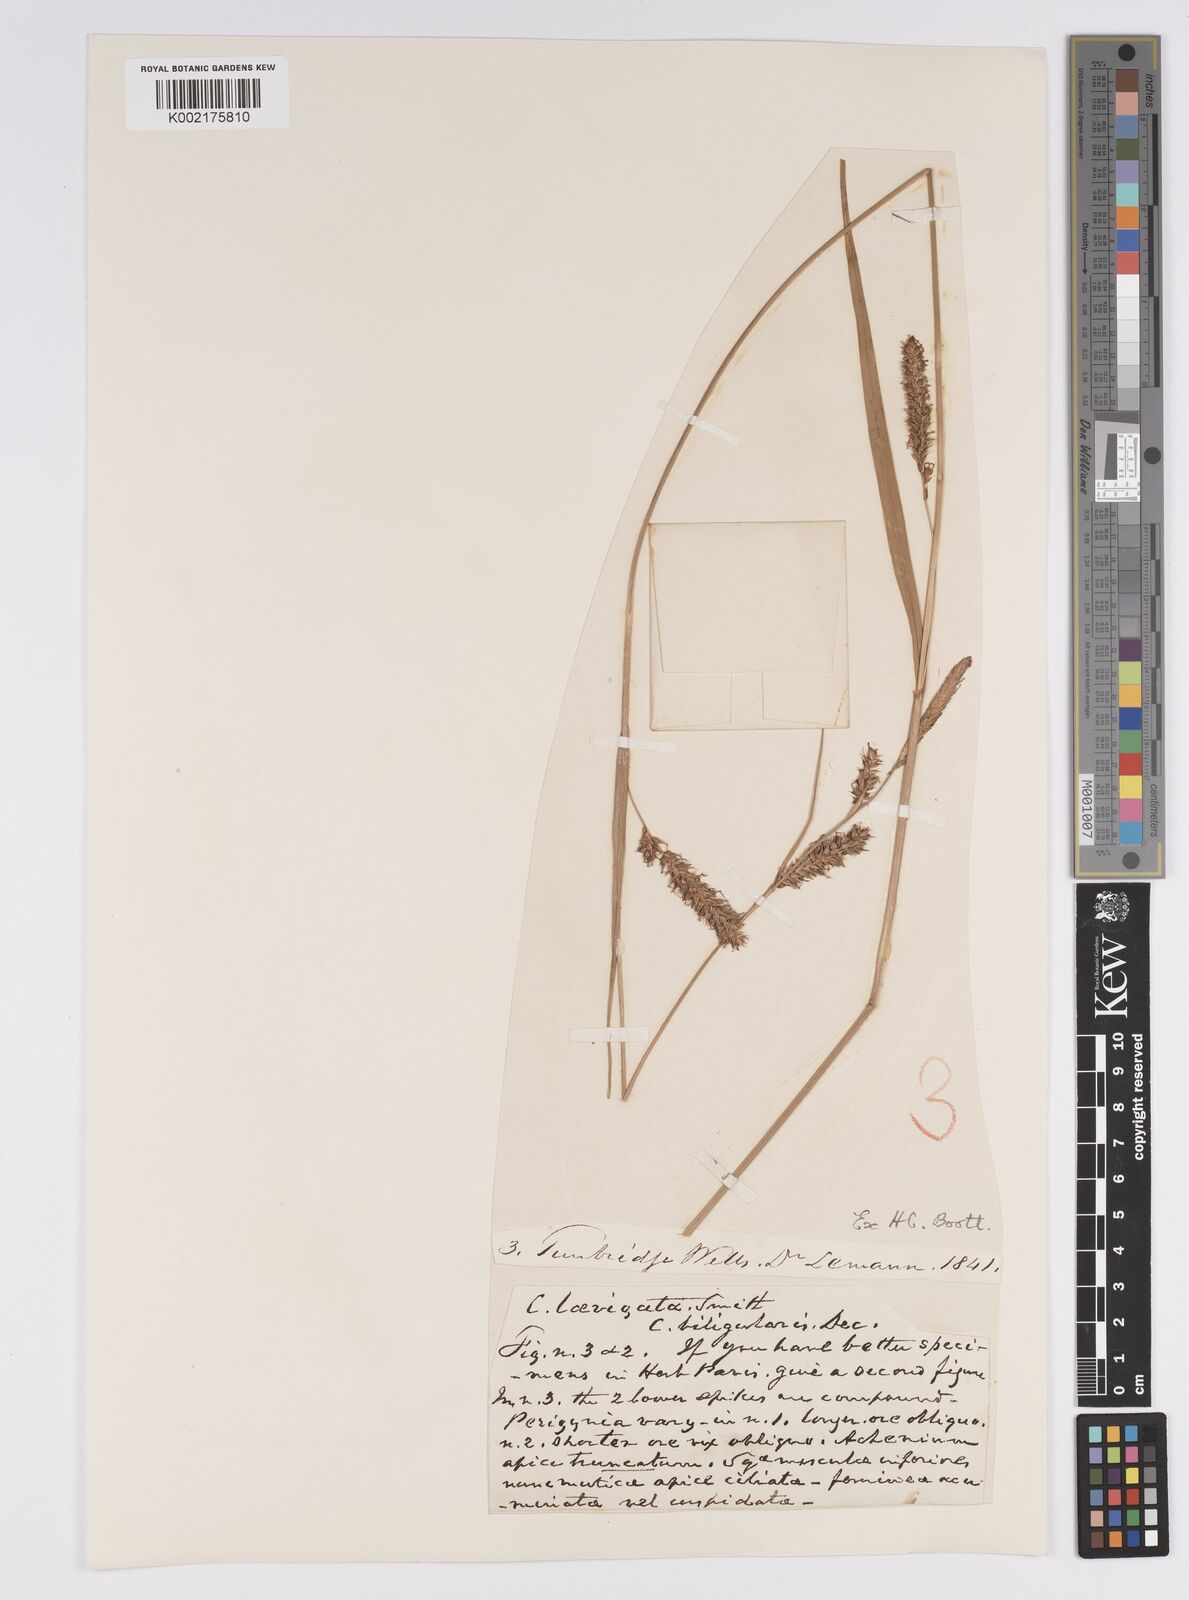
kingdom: Plantae
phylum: Tracheophyta
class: Liliopsida
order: Poales
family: Cyperaceae
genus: Carex
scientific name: Carex laevigata
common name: Smooth-stalked sedge
